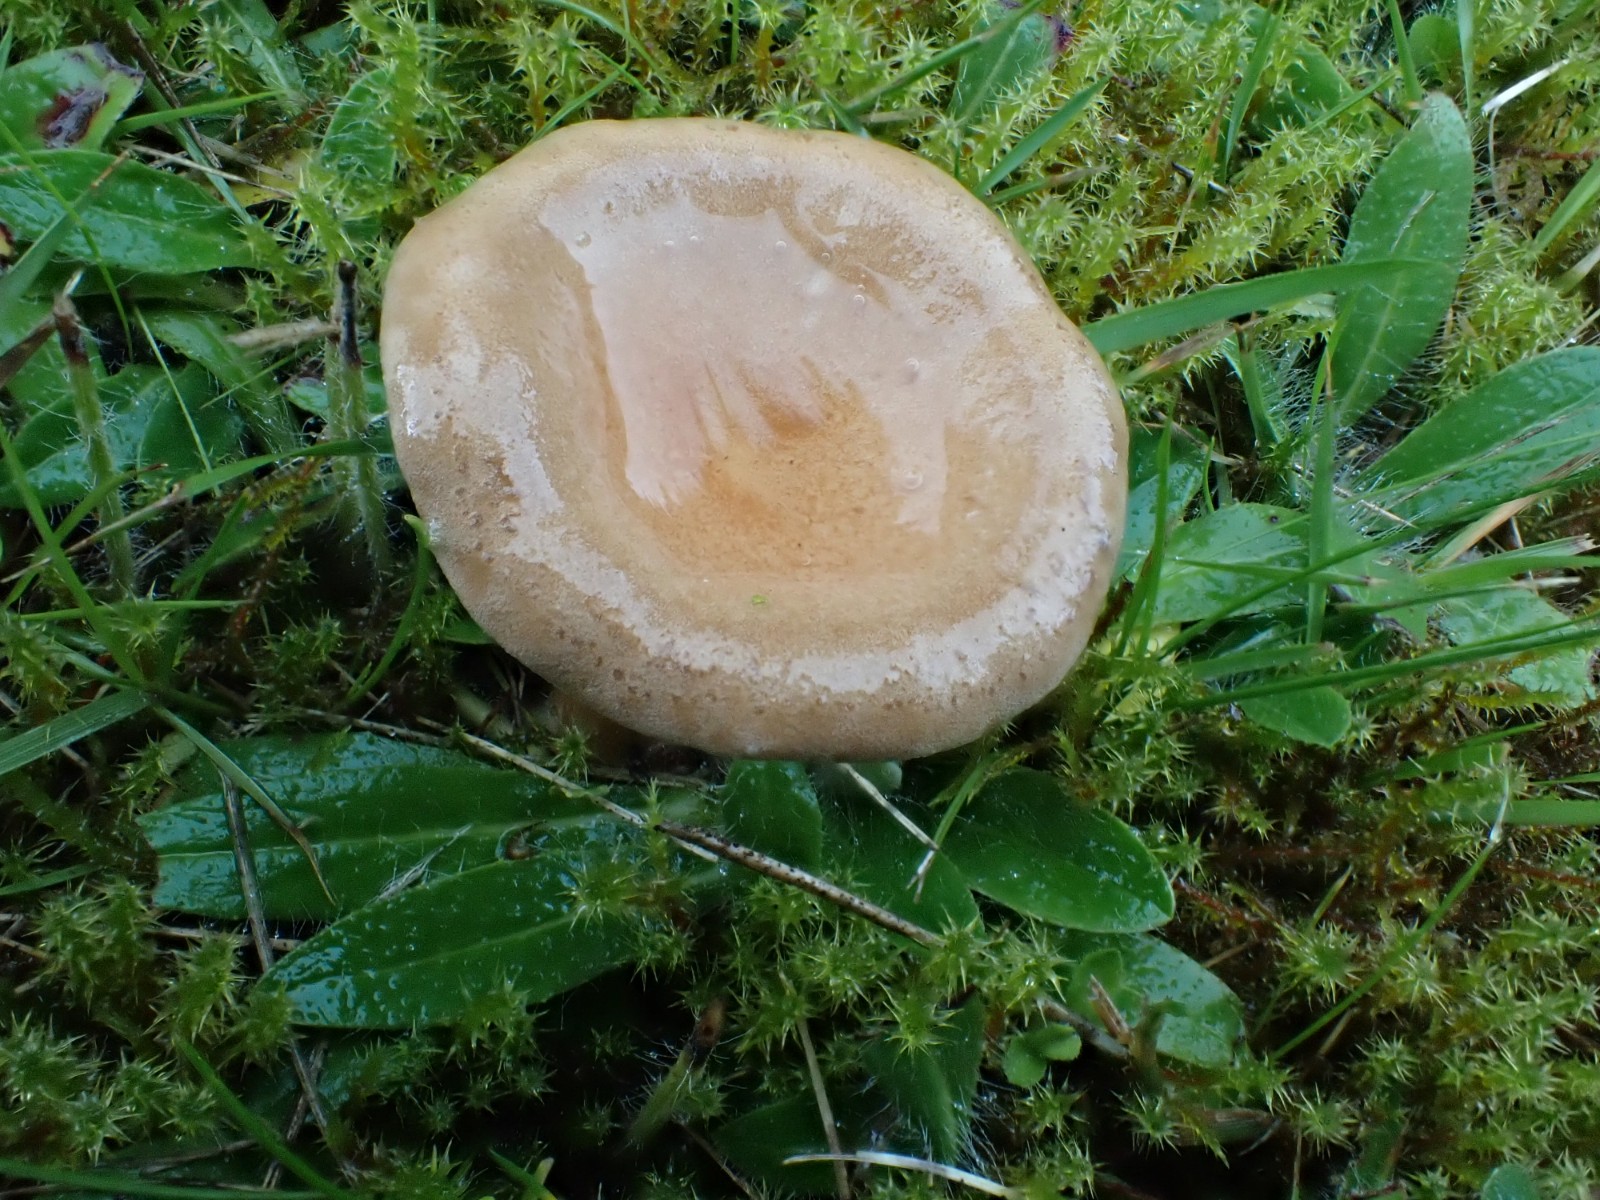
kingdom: Fungi
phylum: Basidiomycota
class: Agaricomycetes
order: Agaricales
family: Tricholomataceae
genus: Infundibulicybe
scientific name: Infundibulicybe squamulosa
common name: småskællet tragthat
